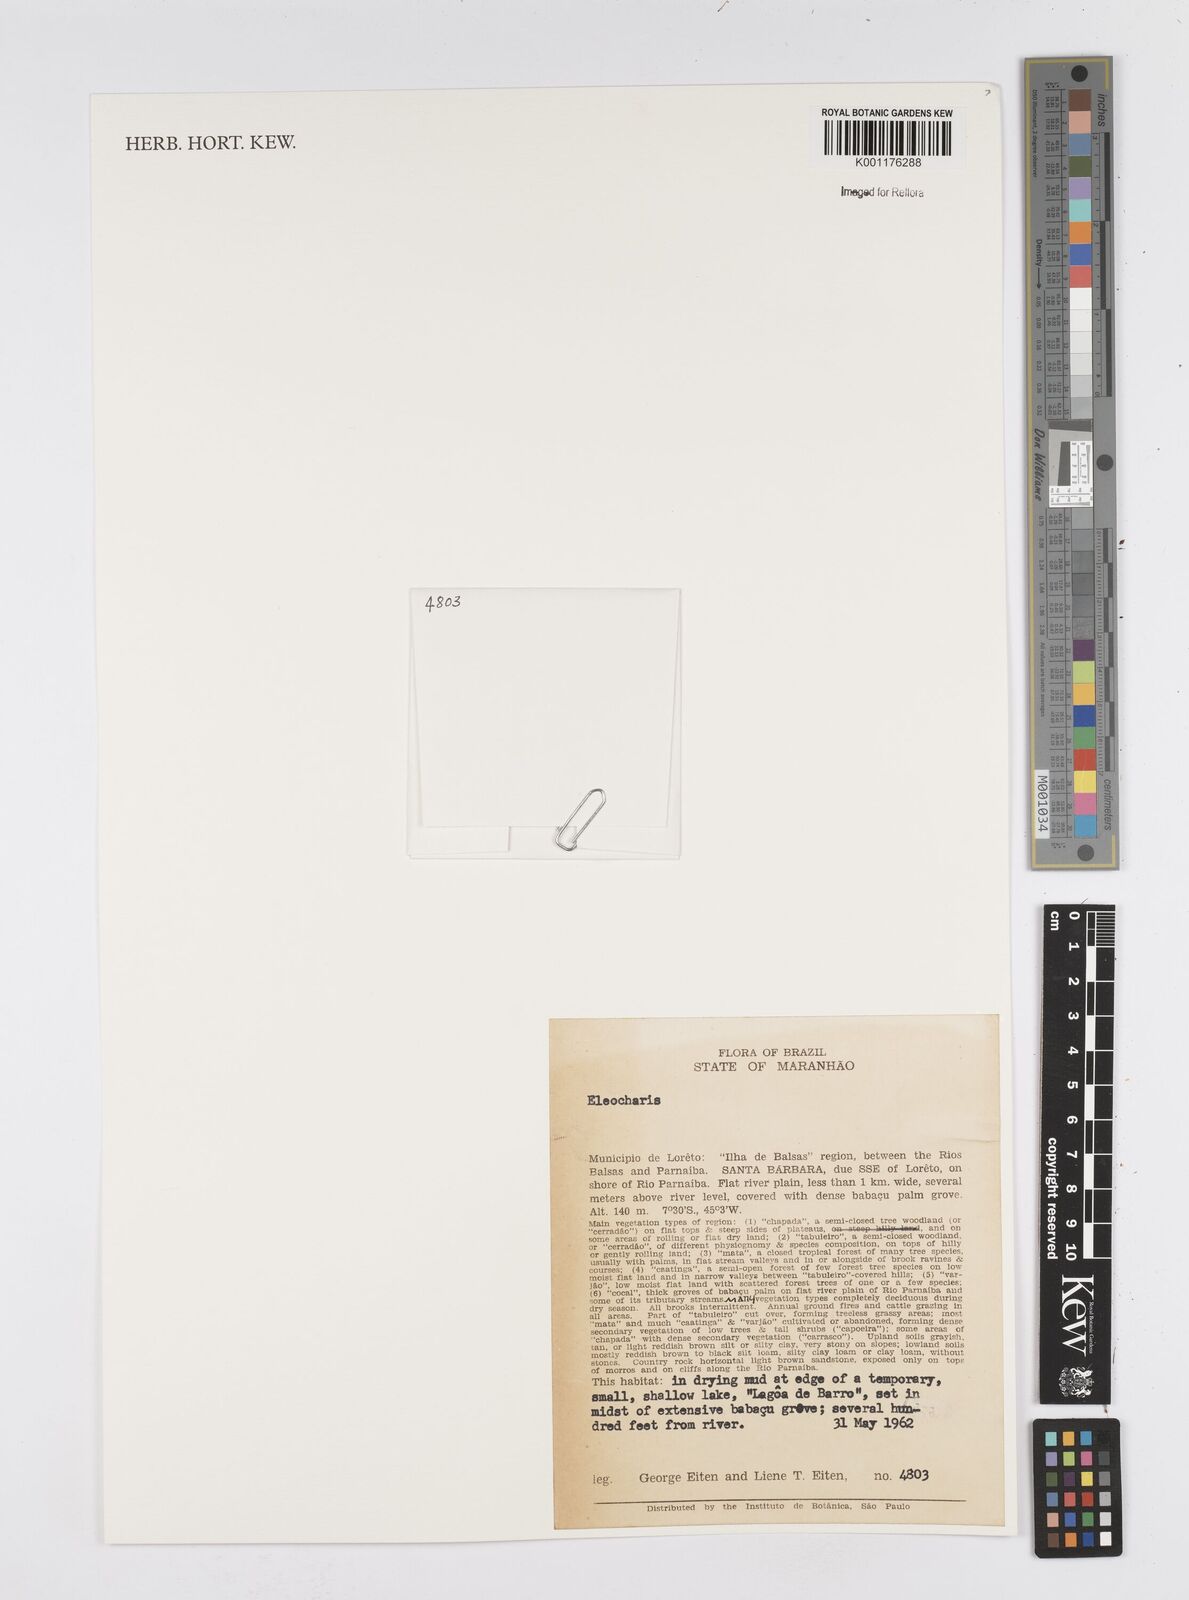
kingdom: Plantae
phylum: Tracheophyta
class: Liliopsida
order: Poales
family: Cyperaceae
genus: Eleocharis
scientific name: Eleocharis
